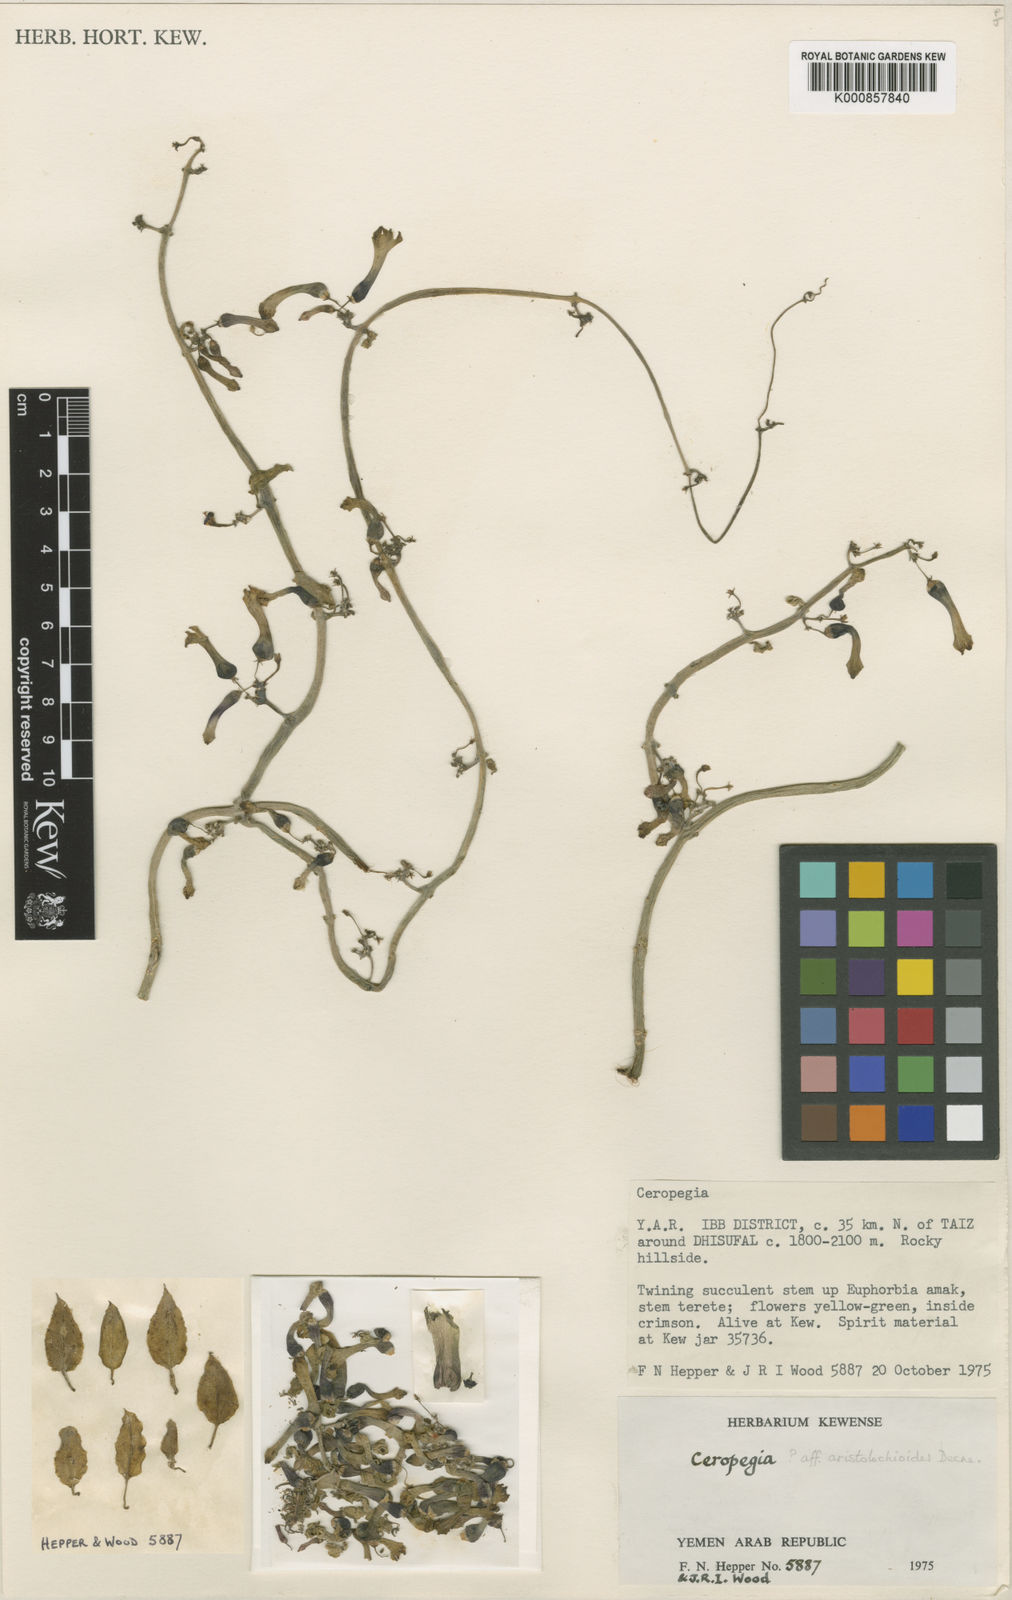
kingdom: Plantae
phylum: Tracheophyta
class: Magnoliopsida
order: Gentianales
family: Apocynaceae
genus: Ceropegia
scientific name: Ceropegia aristolochioides
